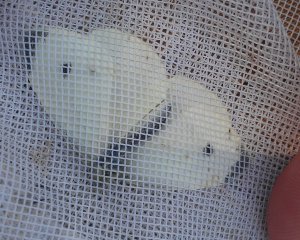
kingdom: Animalia
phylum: Arthropoda
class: Insecta
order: Lepidoptera
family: Pieridae
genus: Pieris
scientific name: Pieris rapae
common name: Cabbage White
